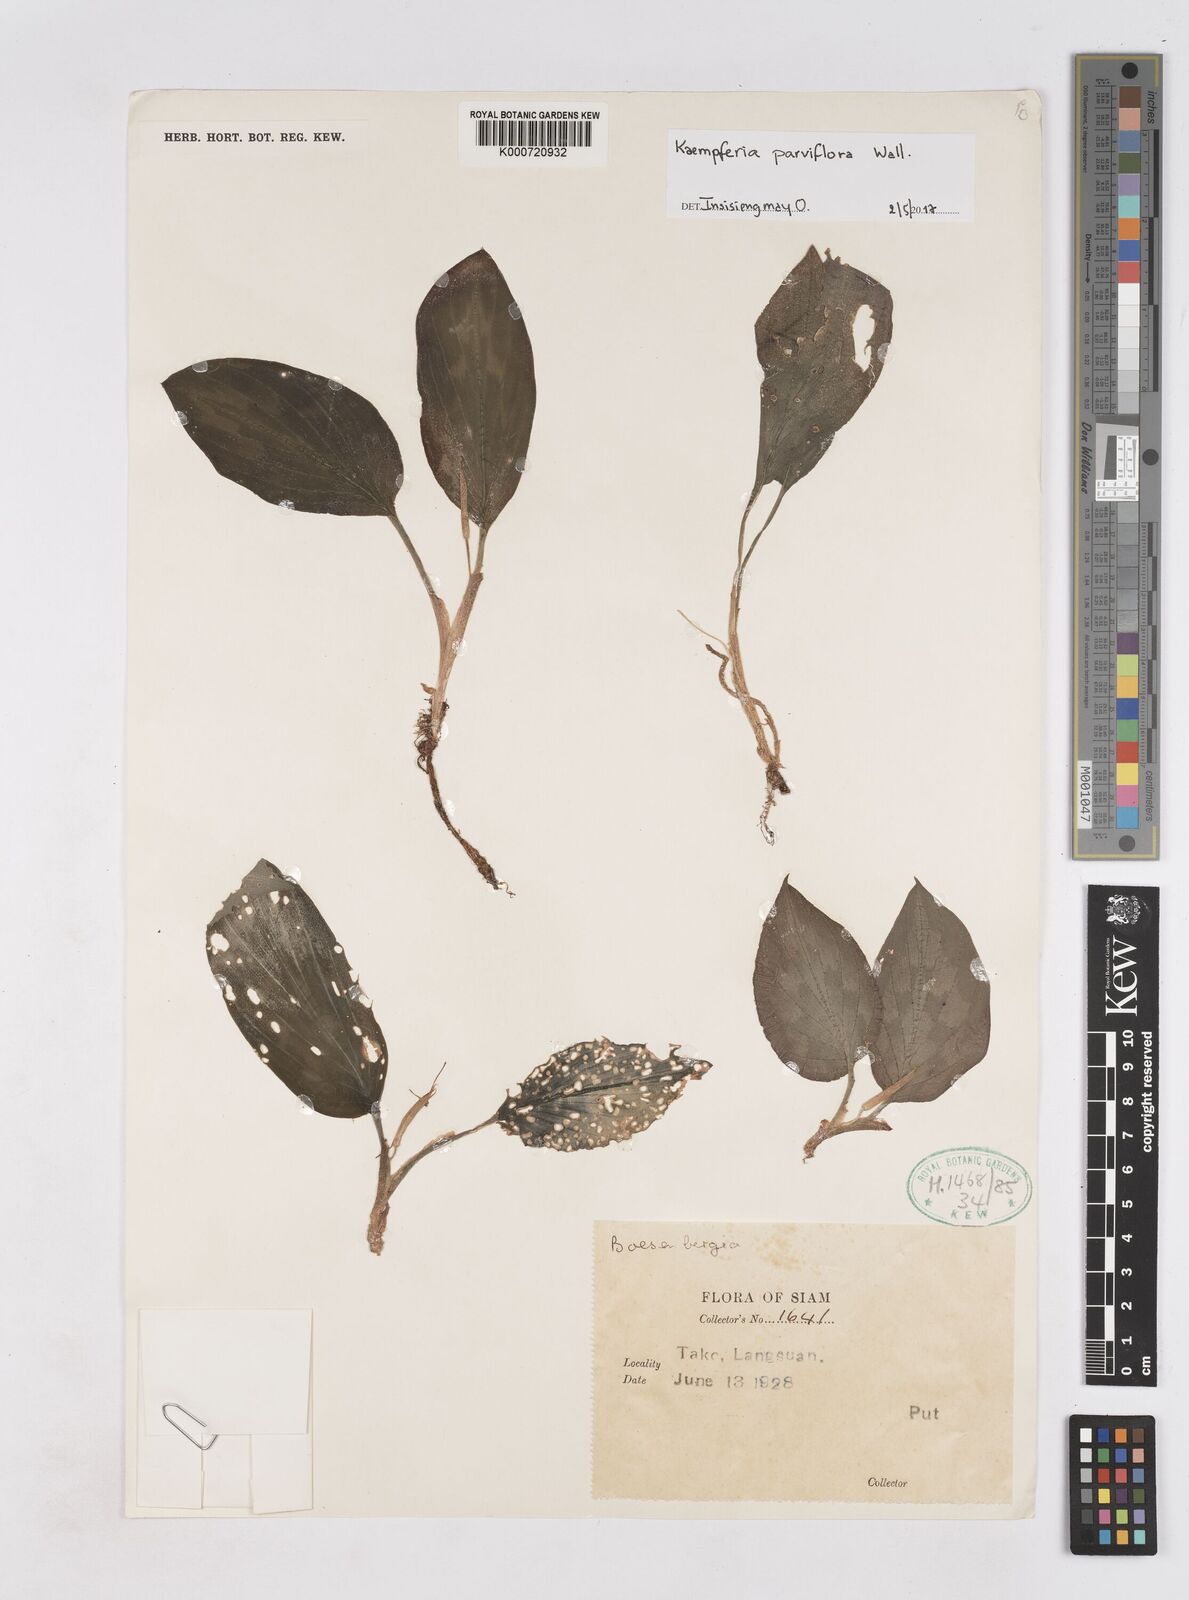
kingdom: Plantae
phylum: Tracheophyta
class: Liliopsida
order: Zingiberales
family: Zingiberaceae
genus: Kaempferia
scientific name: Kaempferia
